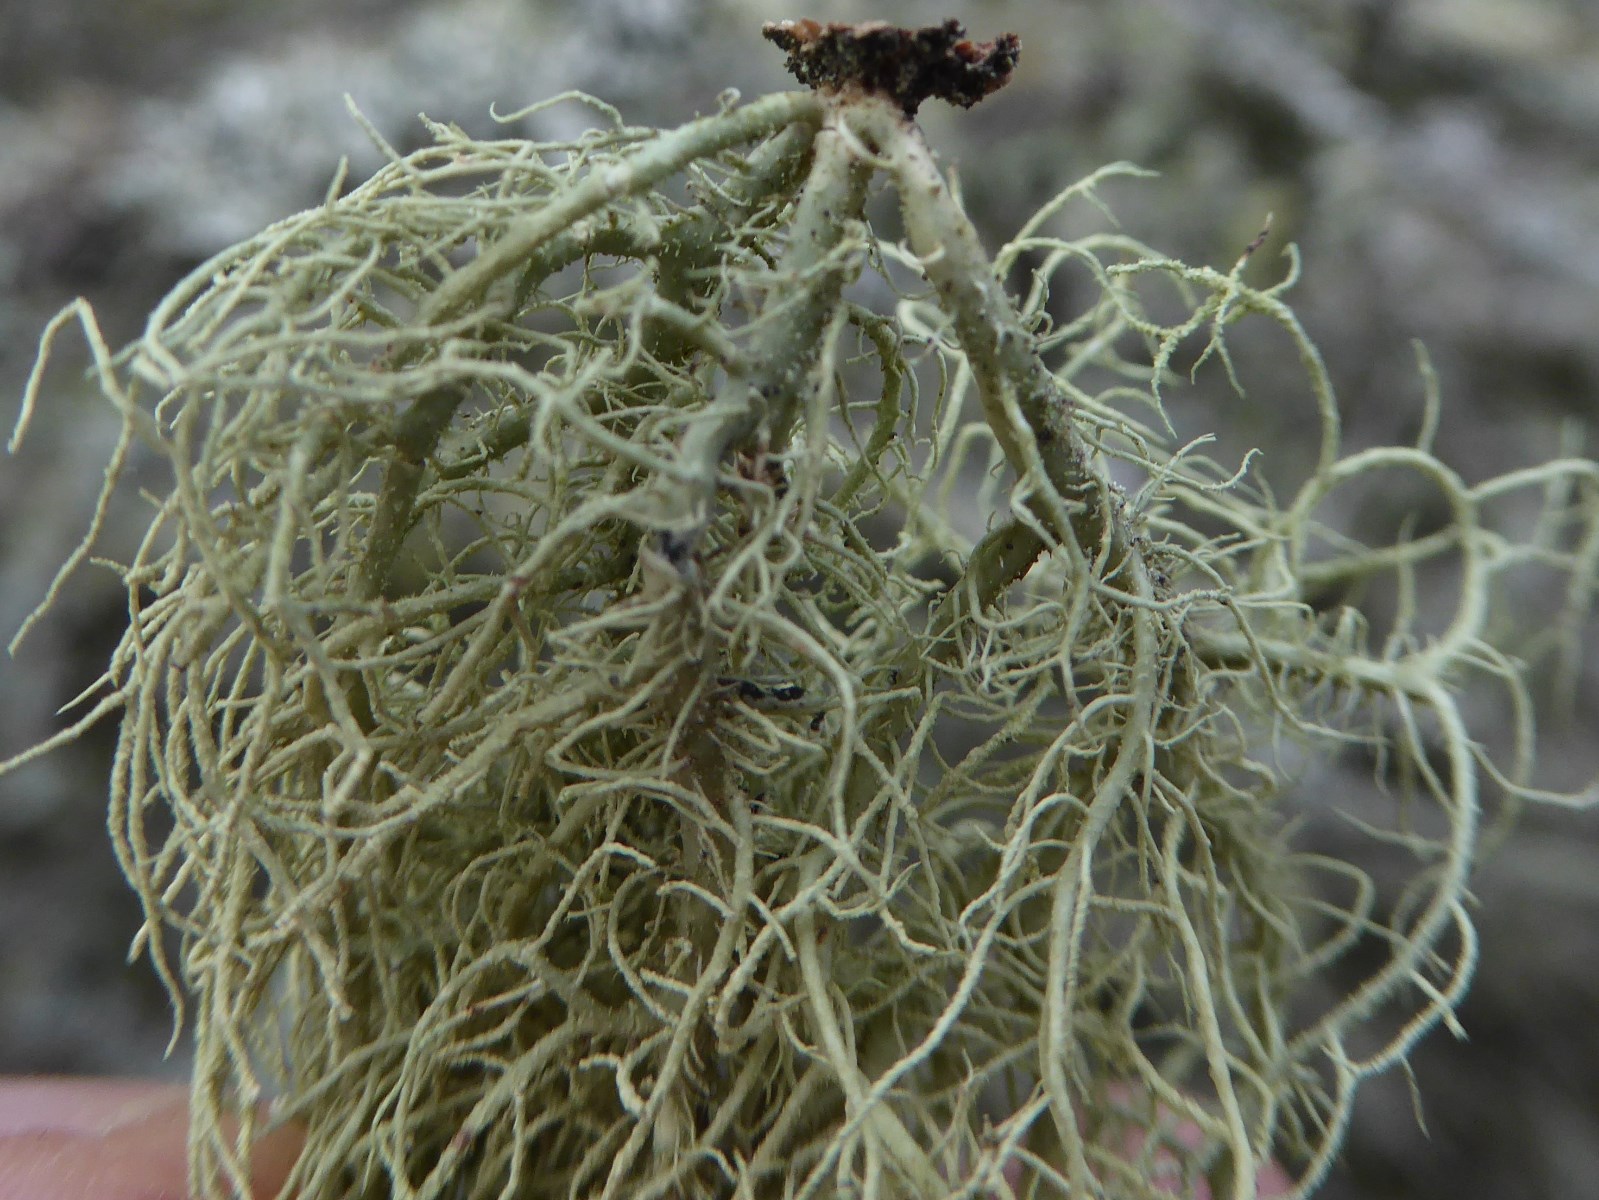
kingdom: Fungi
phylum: Ascomycota
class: Lecanoromycetes
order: Lecanorales
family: Parmeliaceae
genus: Usnea
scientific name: Usnea hirta
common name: liden skæglav
